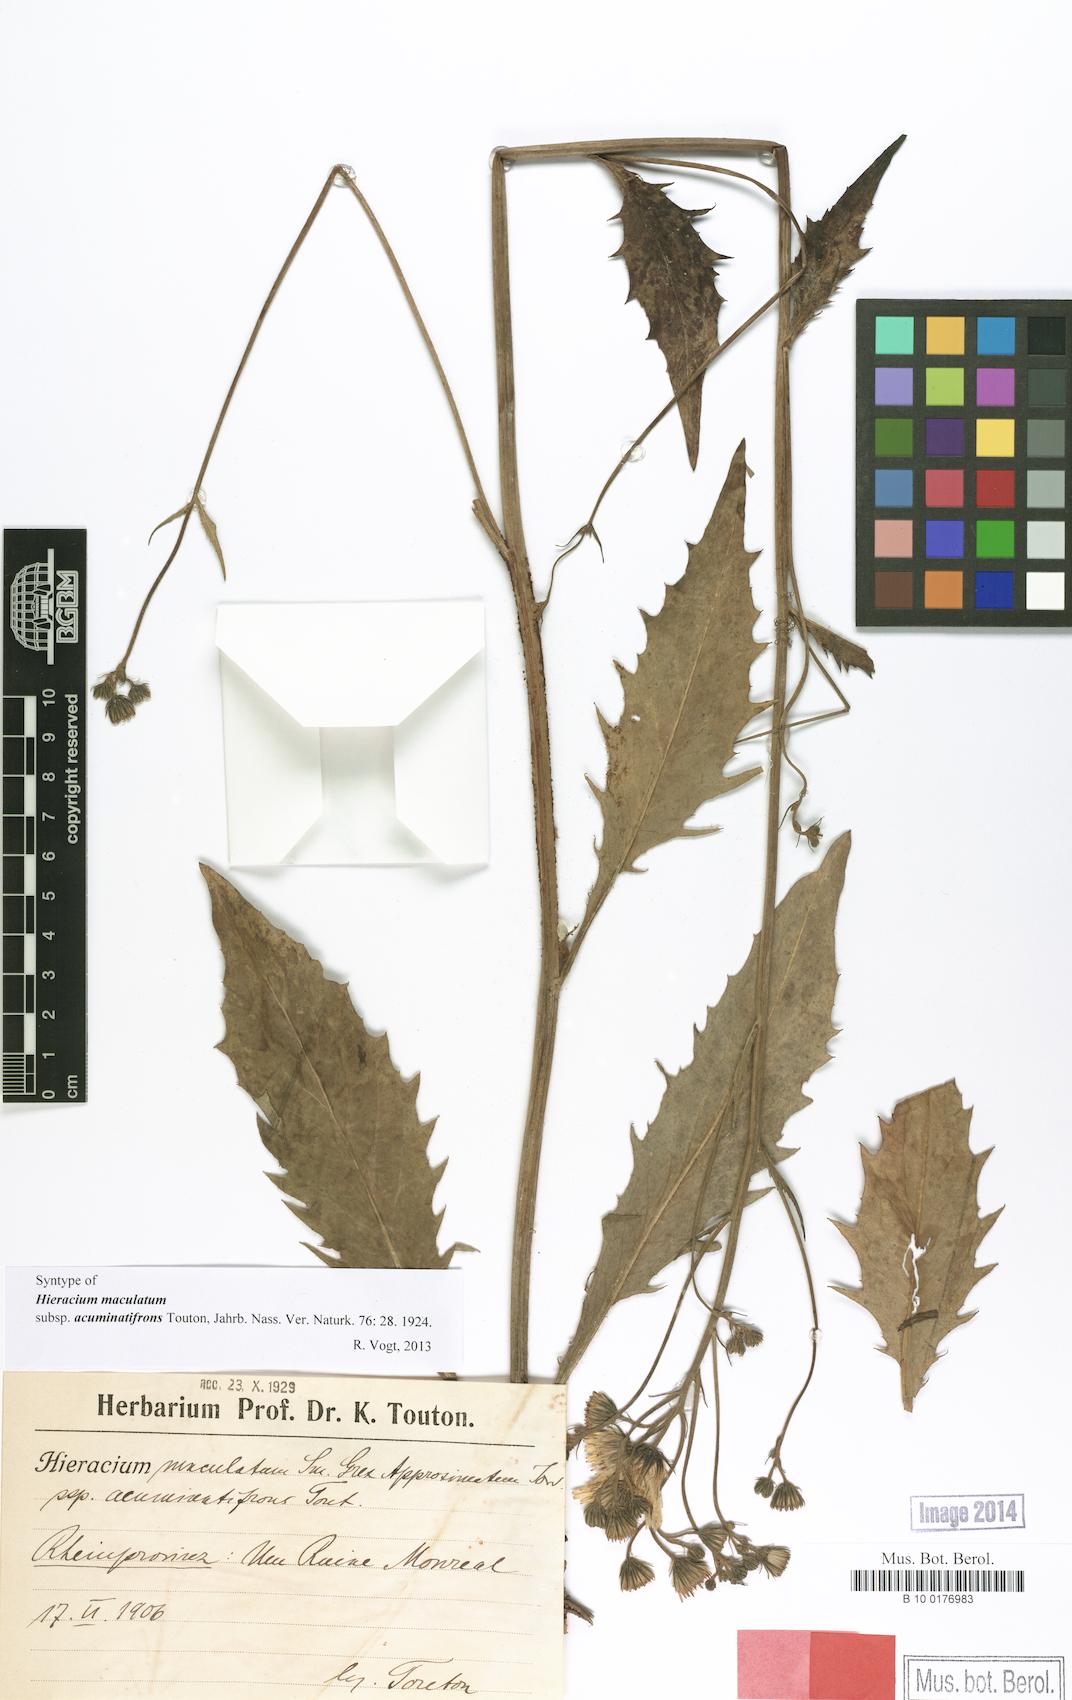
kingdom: Plantae
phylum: Tracheophyta
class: Magnoliopsida
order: Asterales
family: Asteraceae
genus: Hieracium
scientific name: Hieracium maculatum
